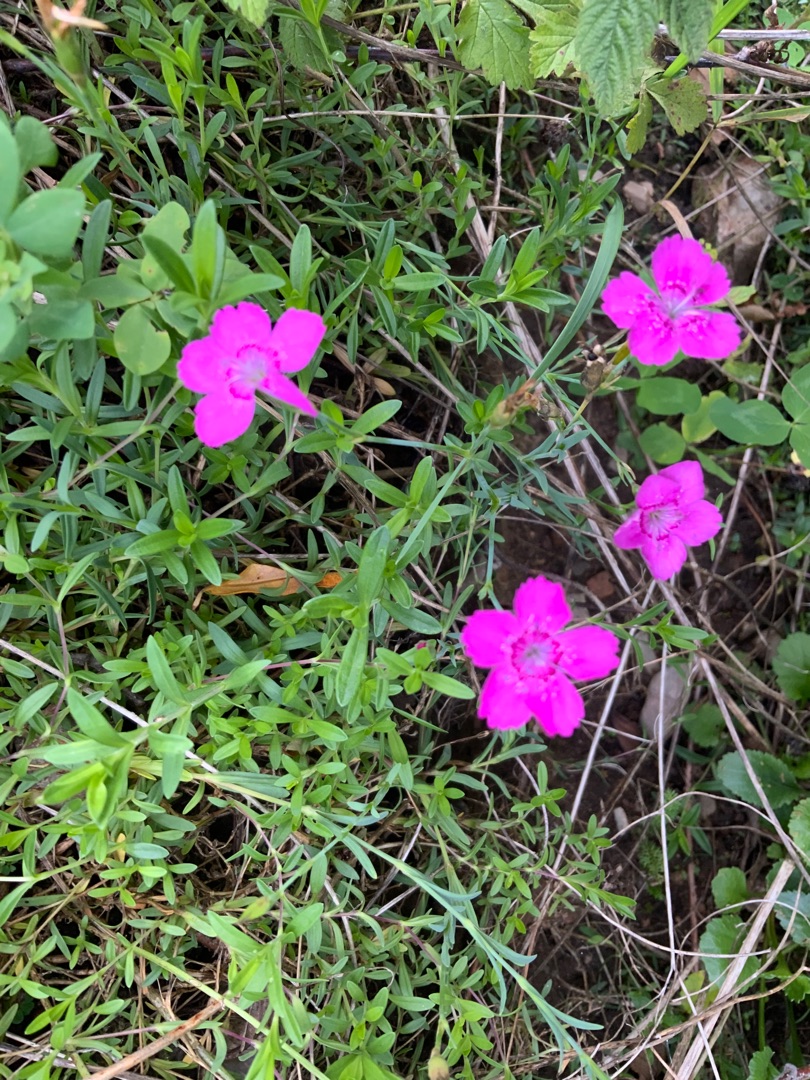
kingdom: Plantae
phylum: Tracheophyta
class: Magnoliopsida
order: Caryophyllales
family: Caryophyllaceae
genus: Dianthus
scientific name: Dianthus deltoides
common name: Bakke-nellike
